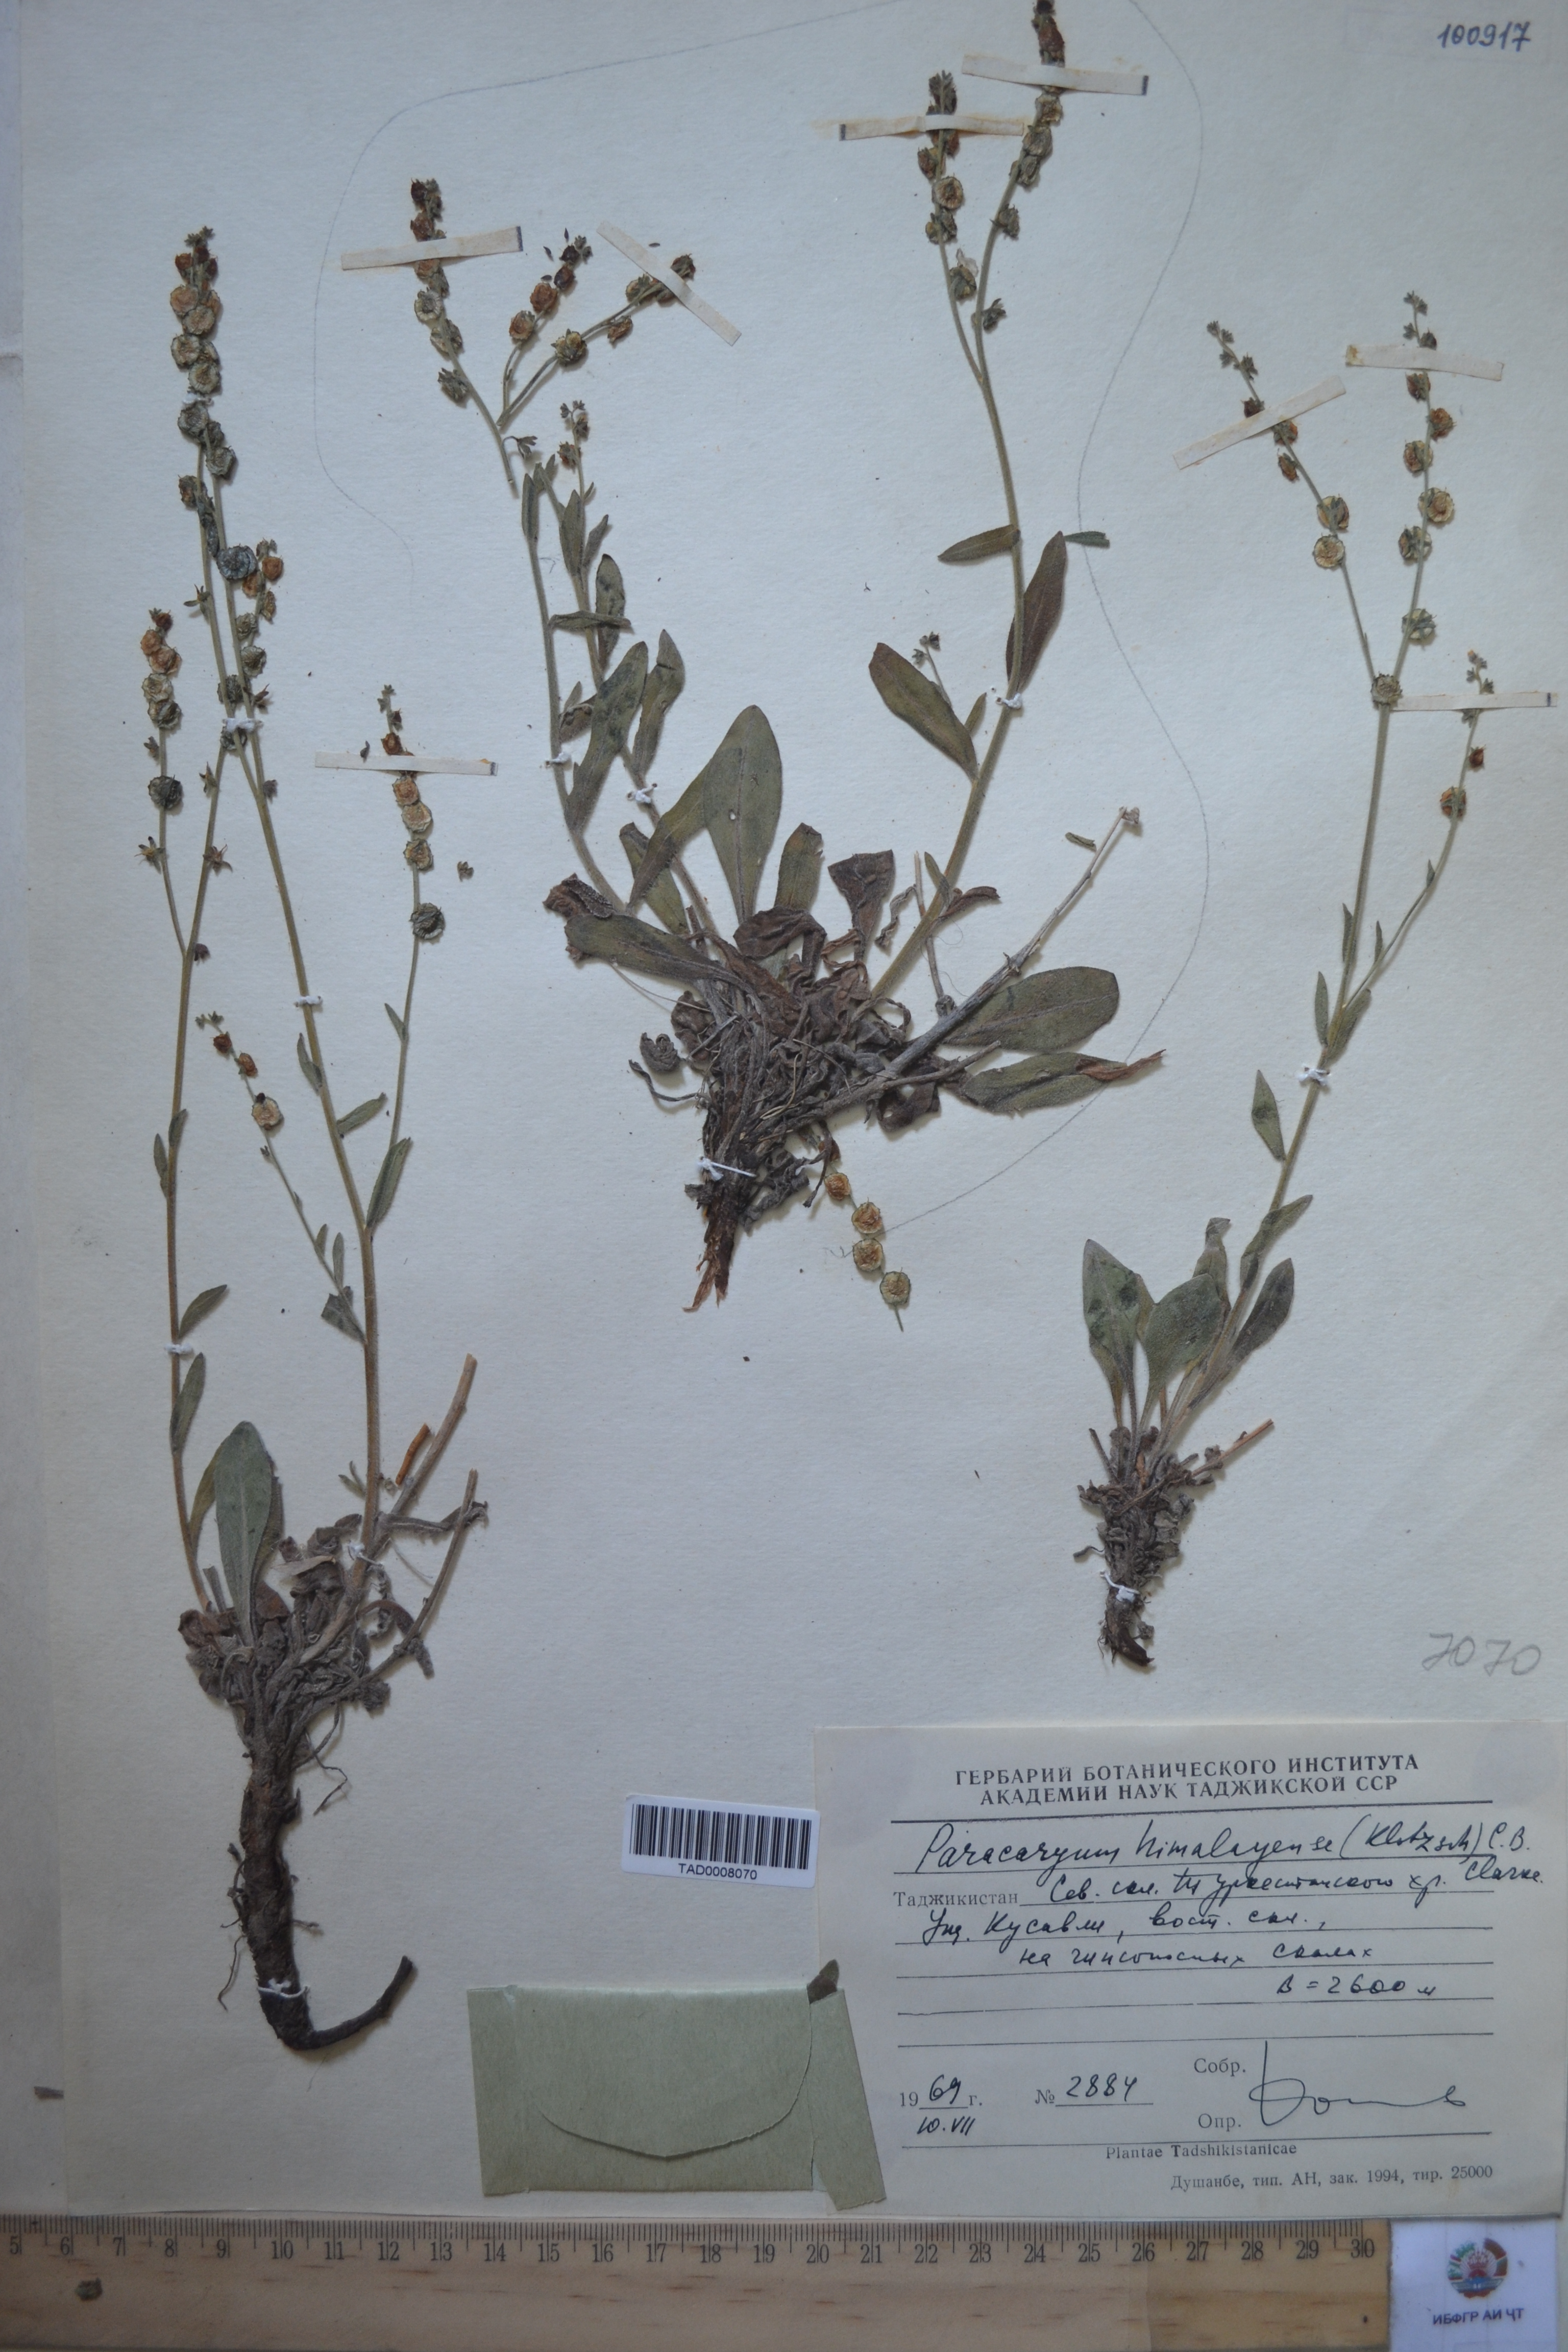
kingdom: Plantae
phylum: Tracheophyta
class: Magnoliopsida
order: Boraginales
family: Boraginaceae
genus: Paracaryum
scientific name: Paracaryum himalayense
